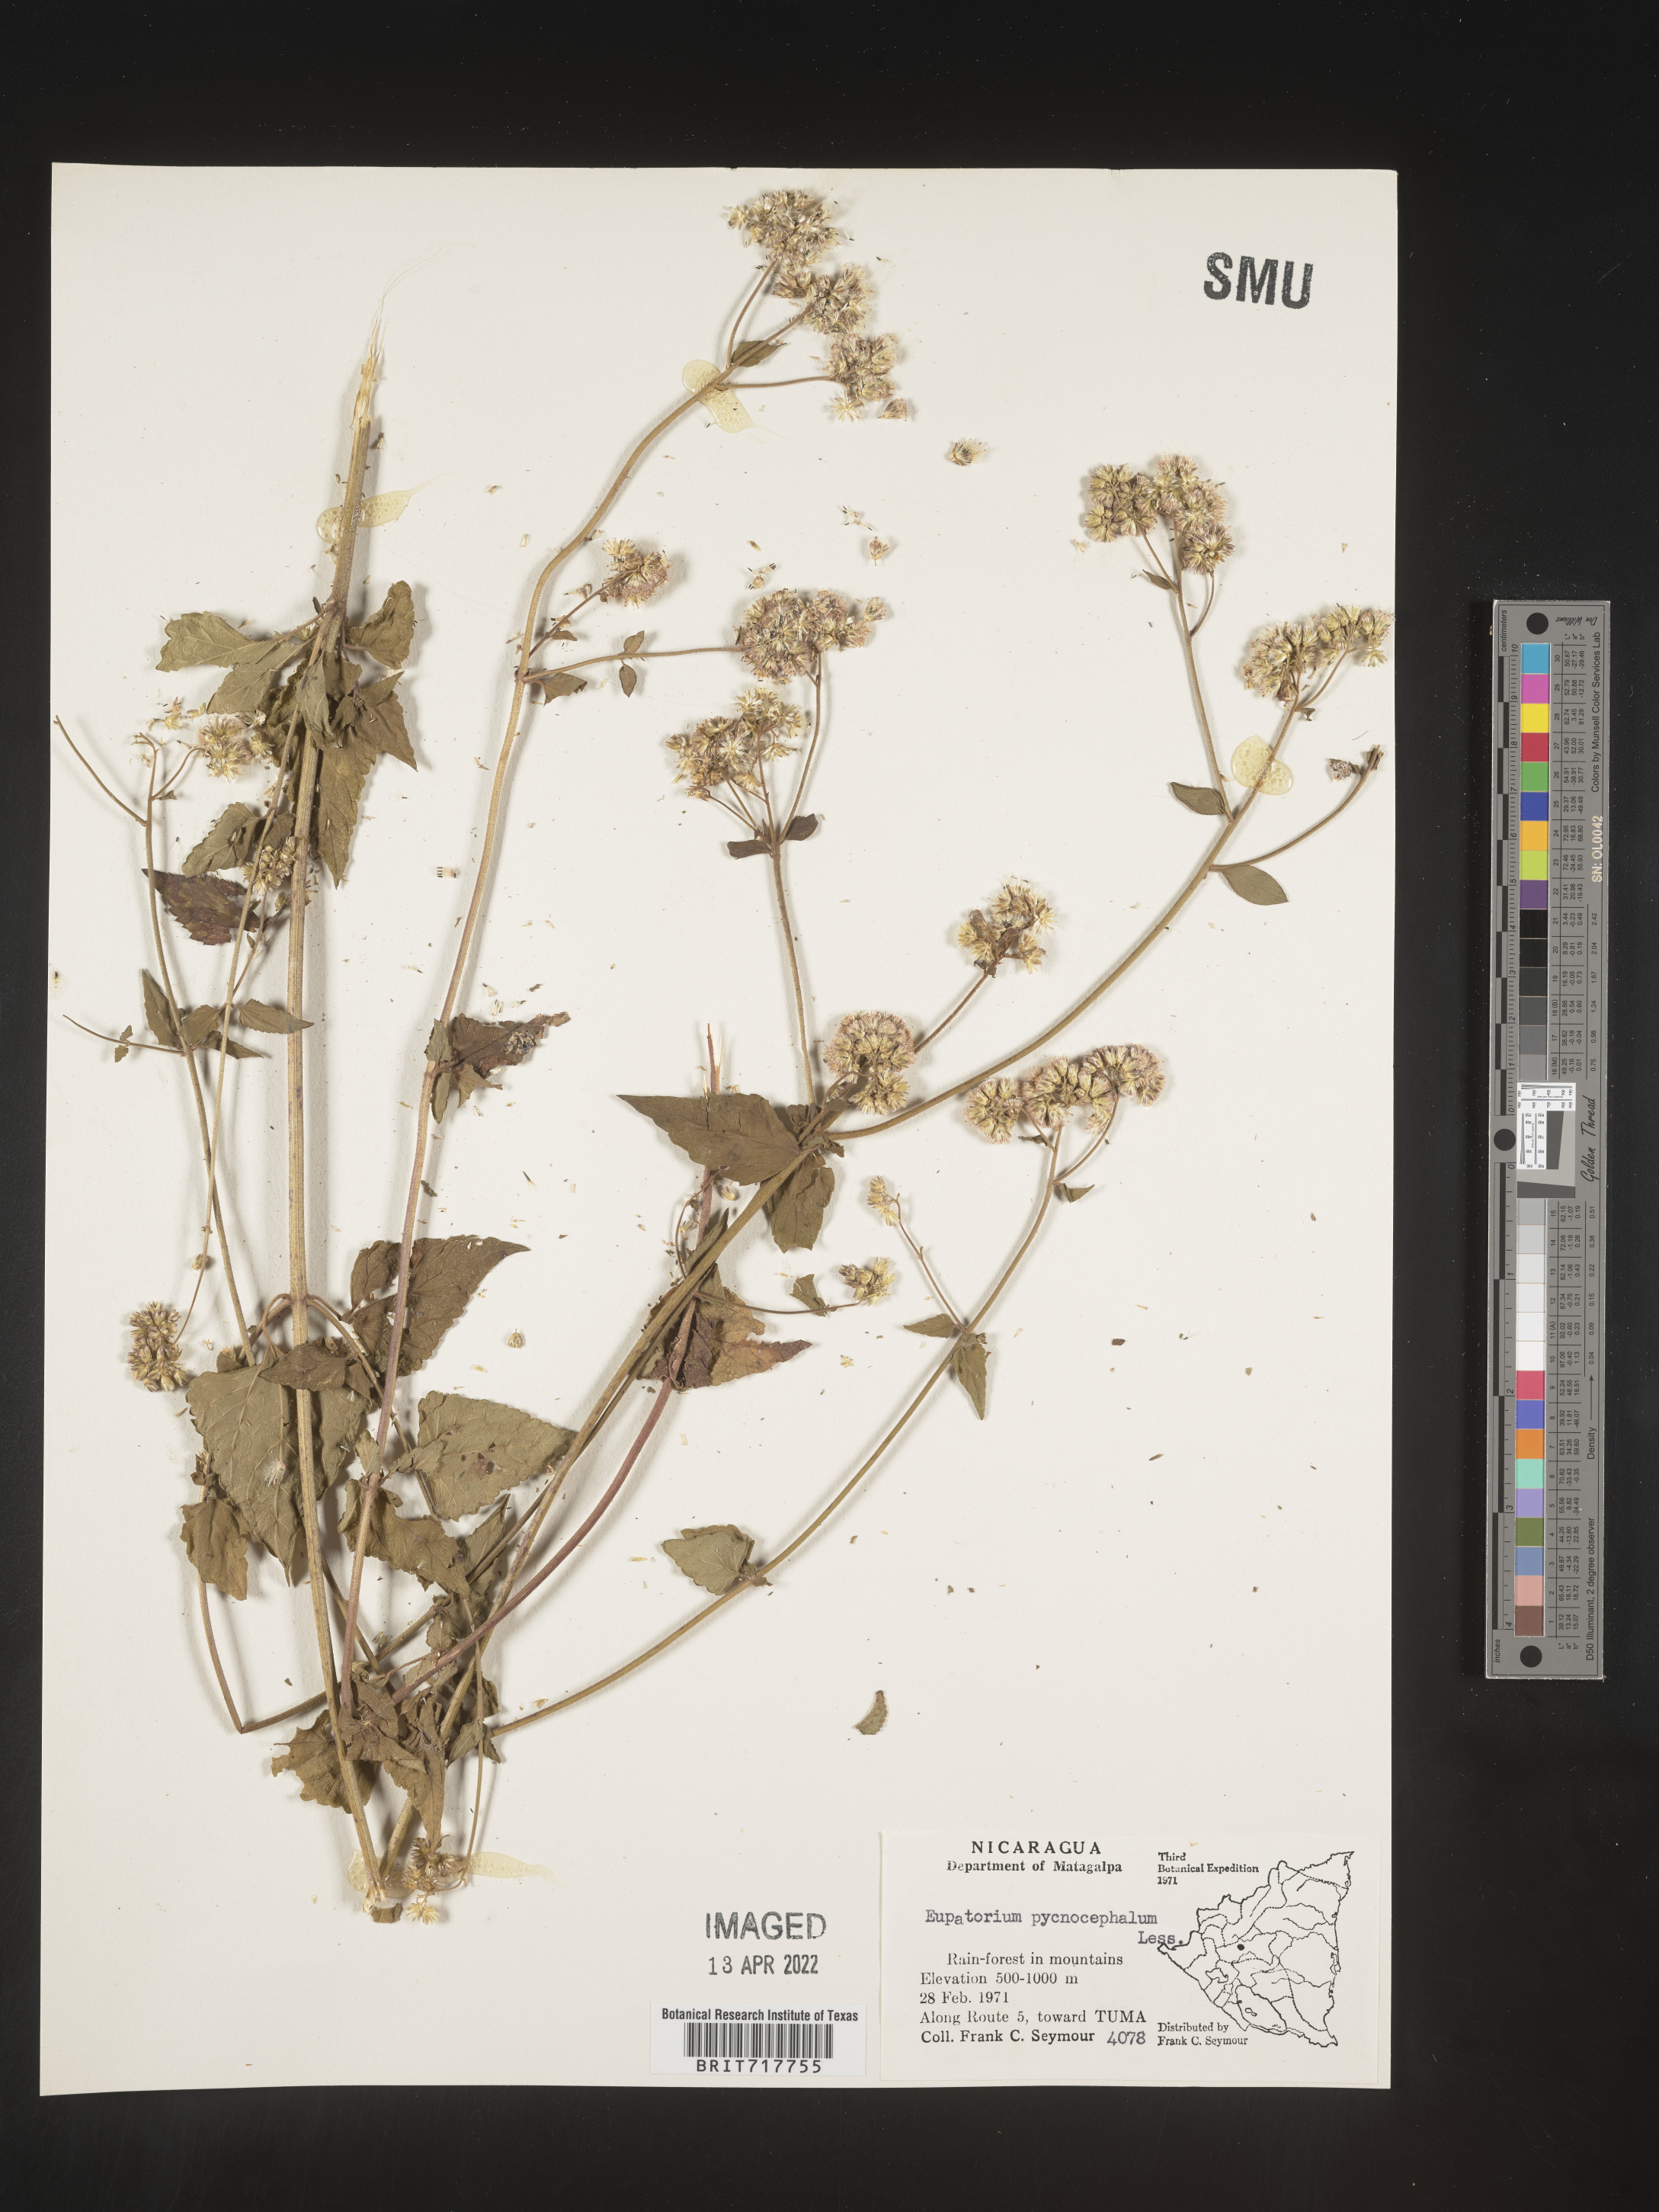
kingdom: Plantae
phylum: Tracheophyta
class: Magnoliopsida
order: Asterales
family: Asteraceae
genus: Fleischmannia
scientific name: Fleischmannia pycnocephala
